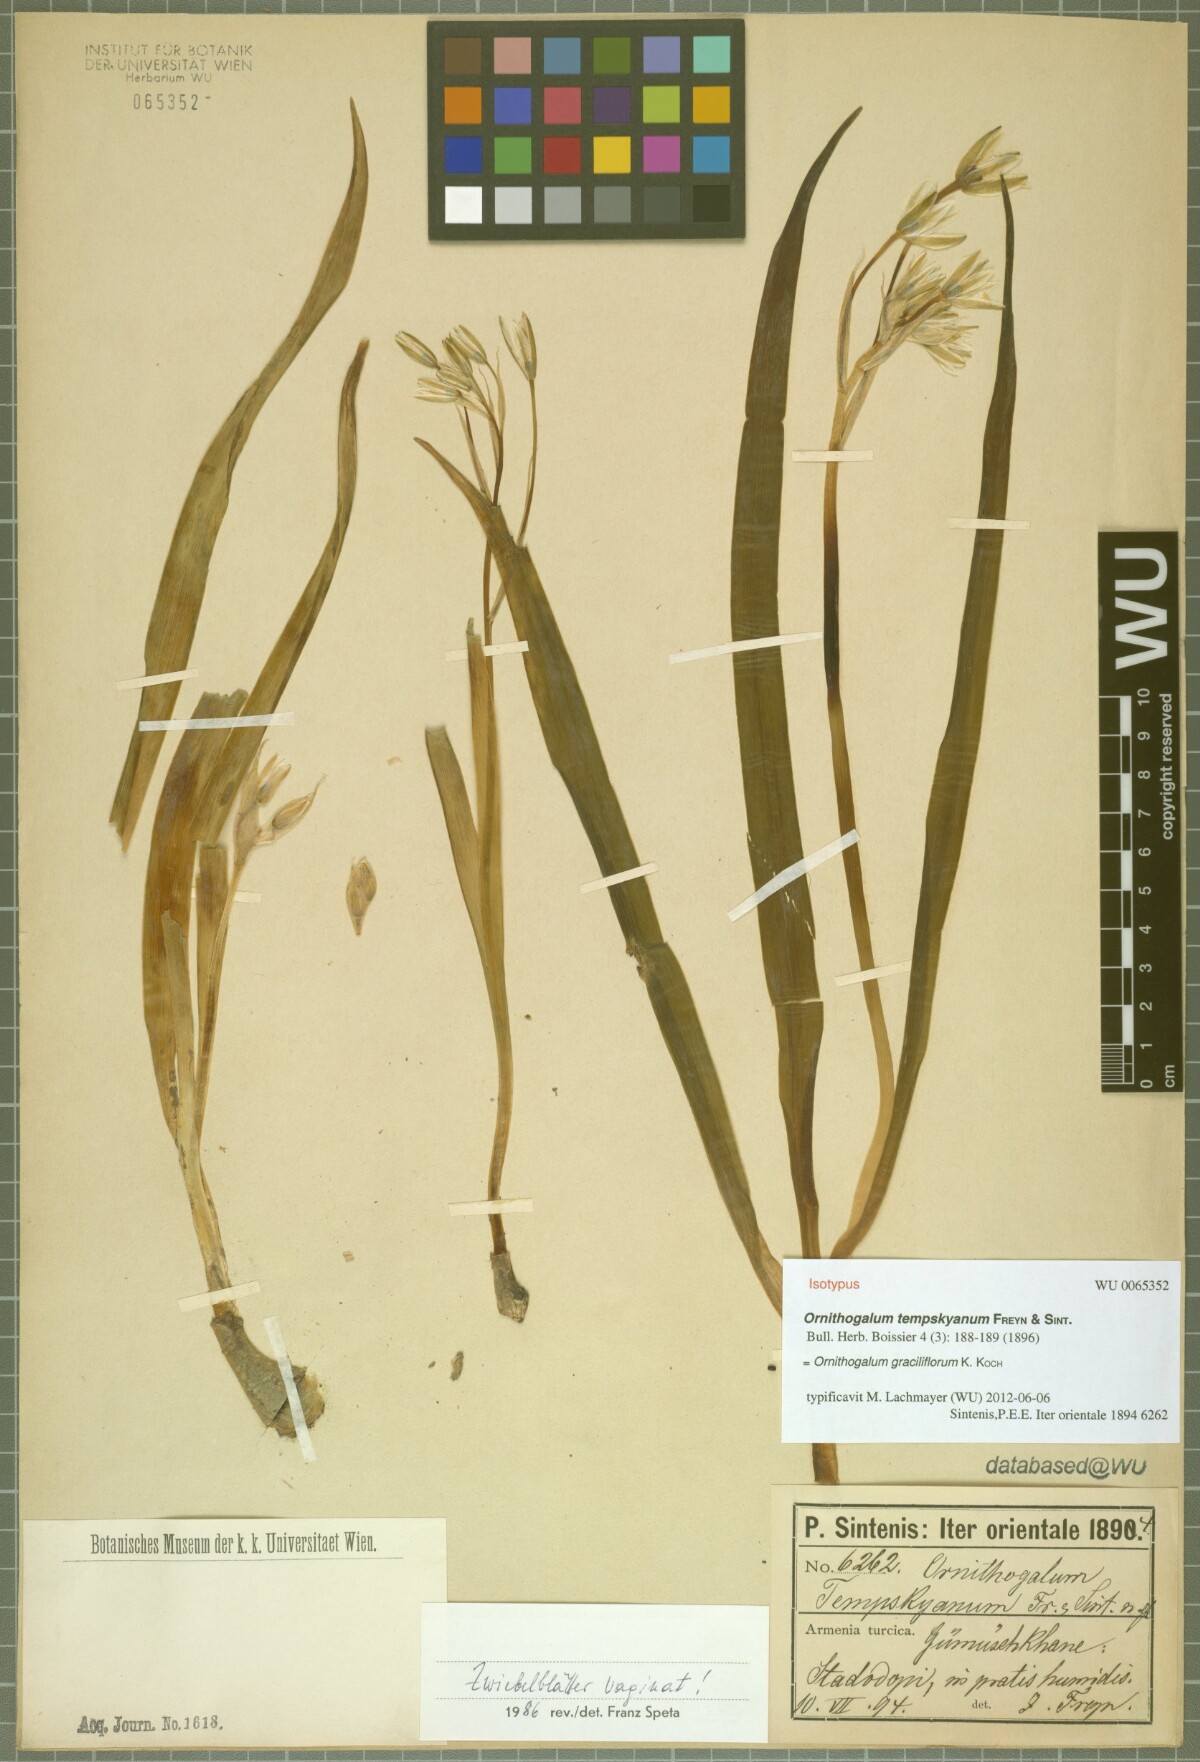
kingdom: Plantae
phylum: Tracheophyta
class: Liliopsida
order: Asparagales
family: Asparagaceae
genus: Ornithogalum
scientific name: Ornithogalum graciliflorum
